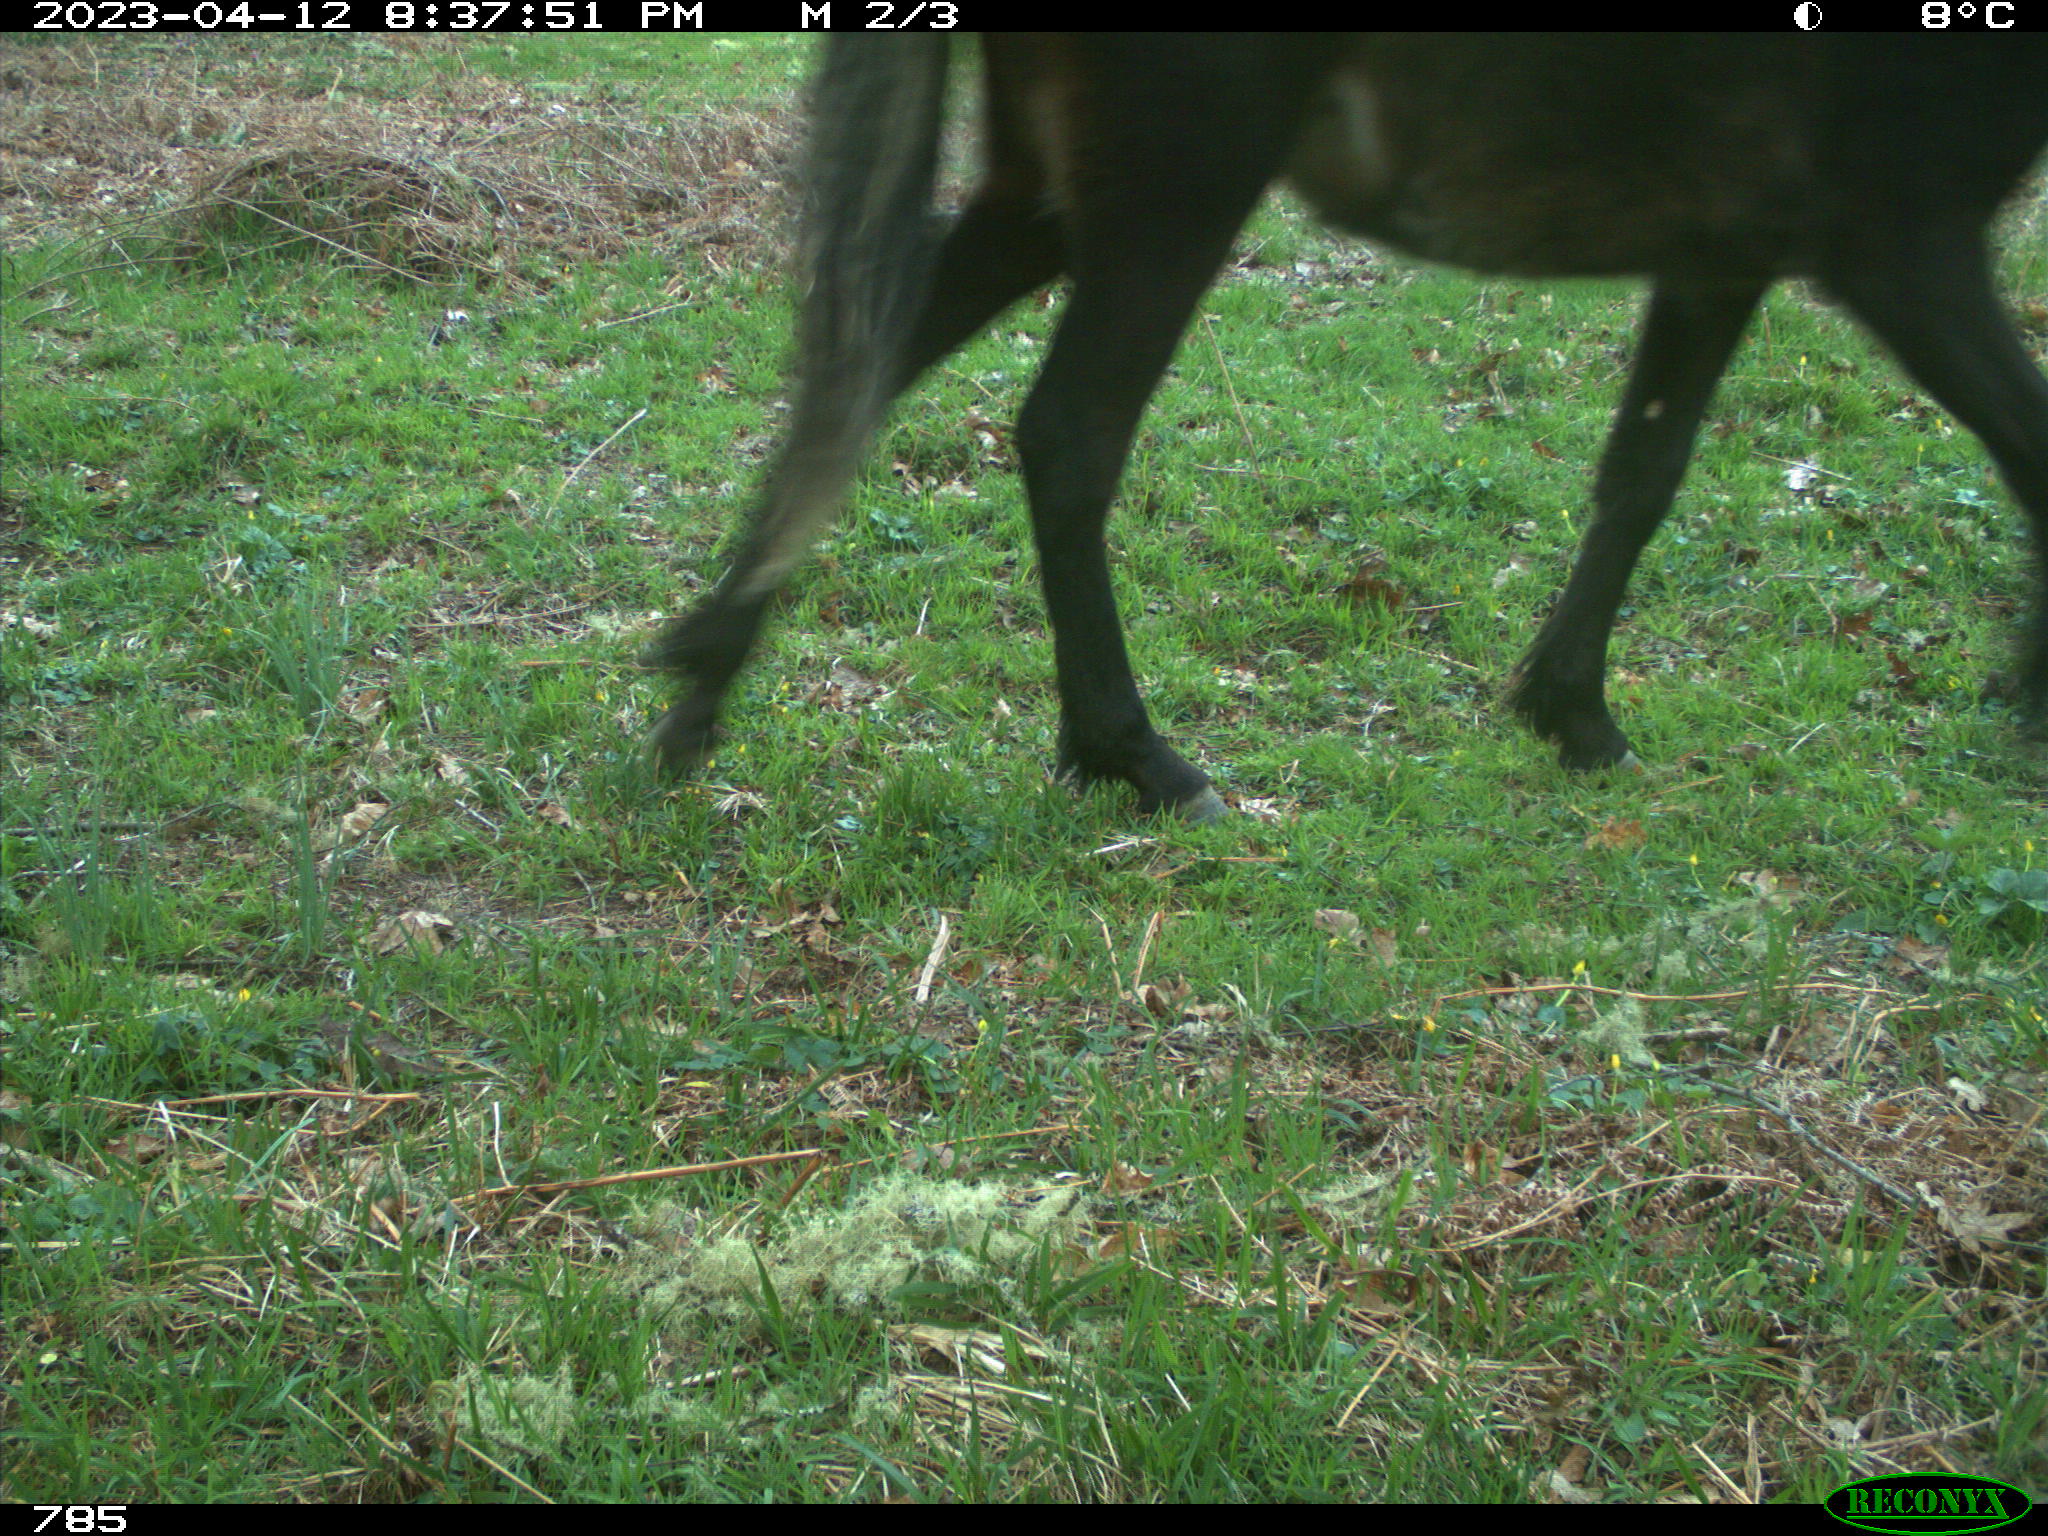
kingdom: Animalia
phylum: Chordata
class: Mammalia
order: Perissodactyla
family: Equidae
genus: Equus
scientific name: Equus caballus
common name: Horse
